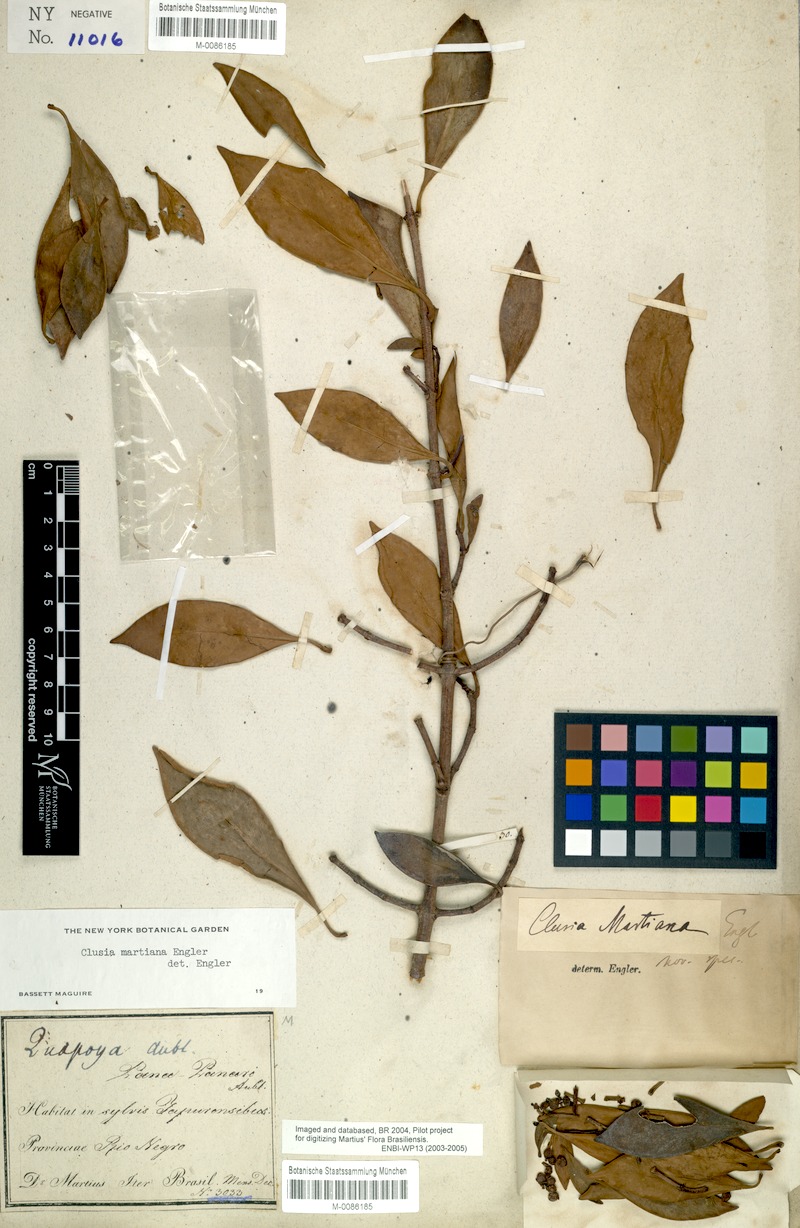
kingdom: Plantae
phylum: Tracheophyta
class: Magnoliopsida
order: Malpighiales
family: Clusiaceae
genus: Clusia
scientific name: Clusia martiana
